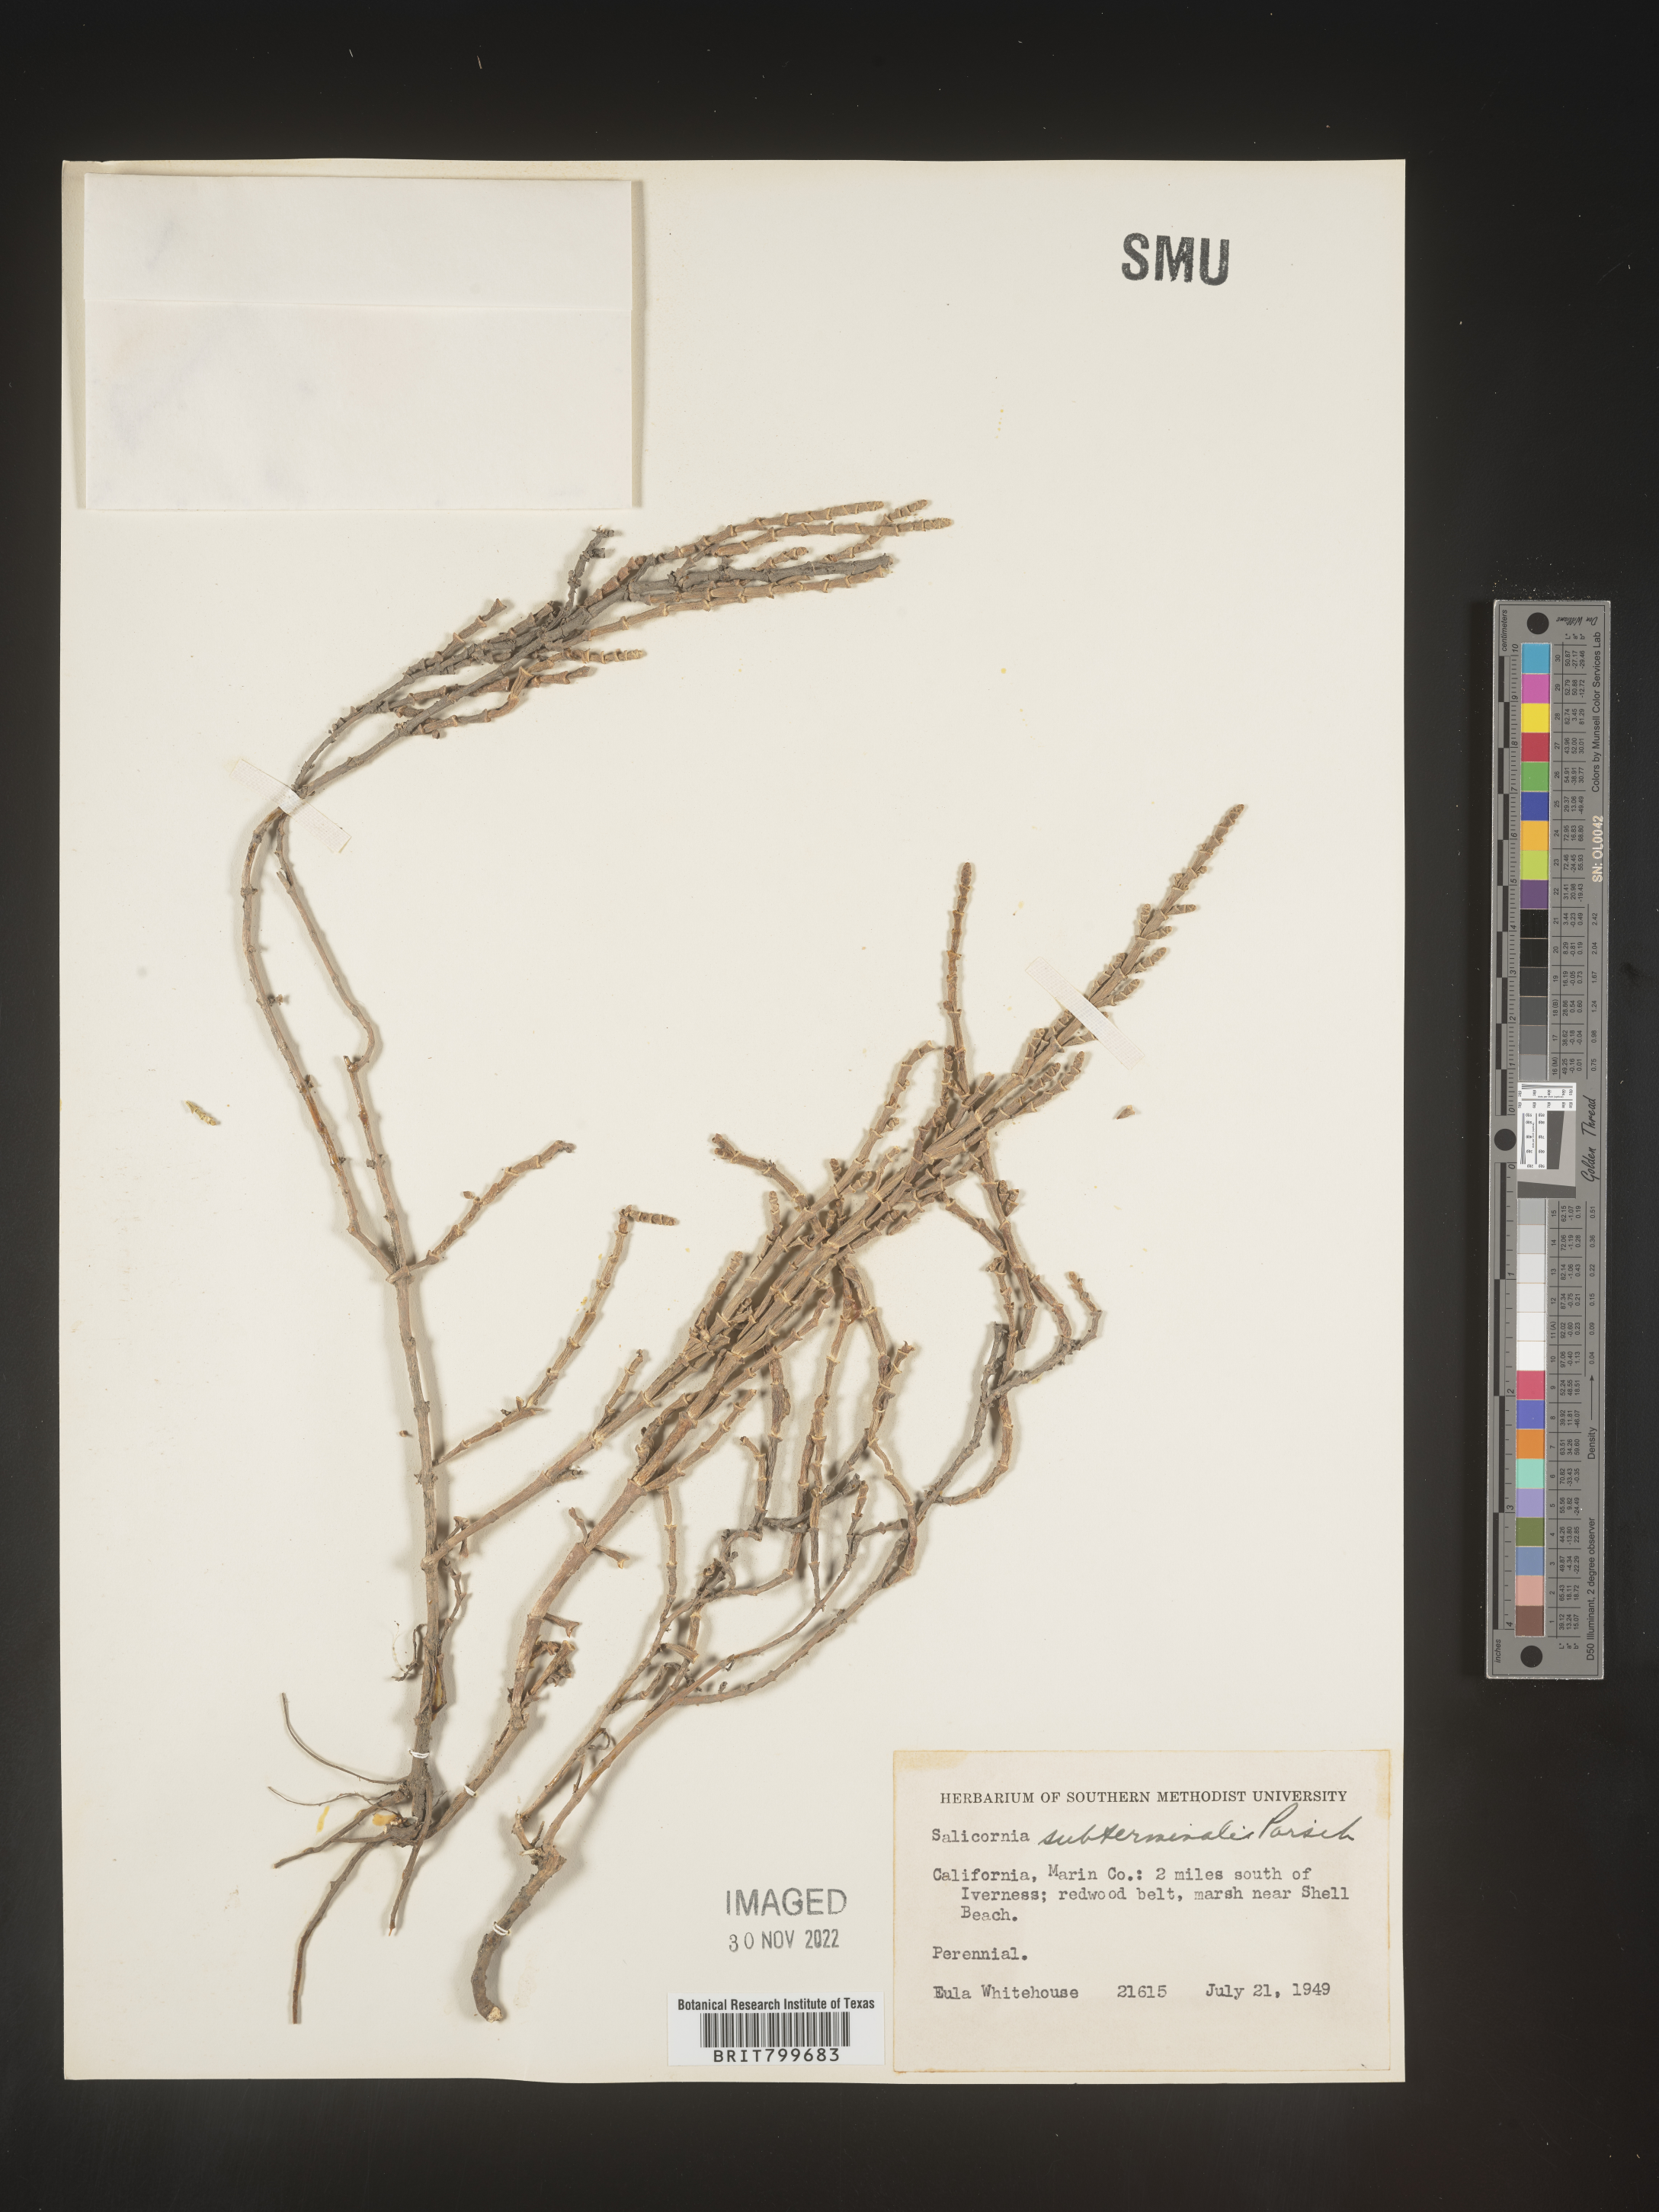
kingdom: Plantae
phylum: Tracheophyta
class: Magnoliopsida
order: Caryophyllales
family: Amaranthaceae
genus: Salicornia
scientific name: Salicornia
